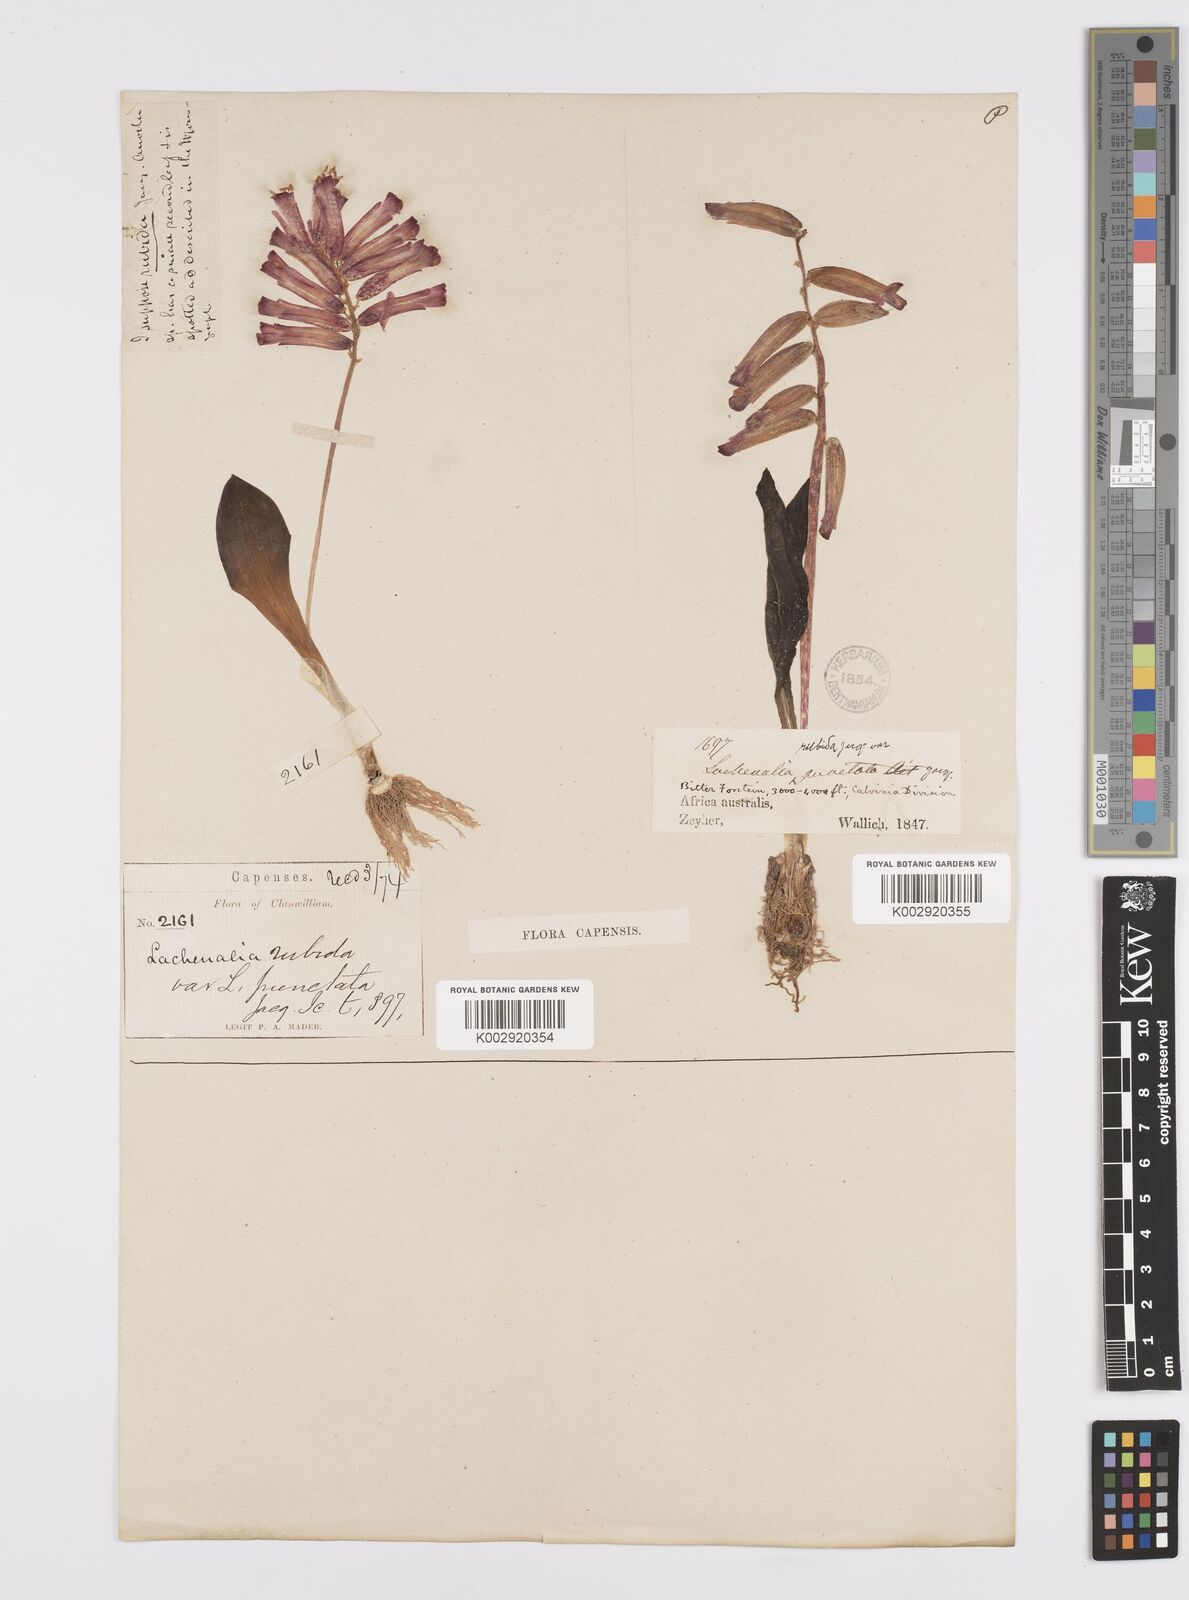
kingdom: Plantae
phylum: Tracheophyta
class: Liliopsida
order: Asparagales
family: Asparagaceae
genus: Lachenalia
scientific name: Lachenalia punctata
